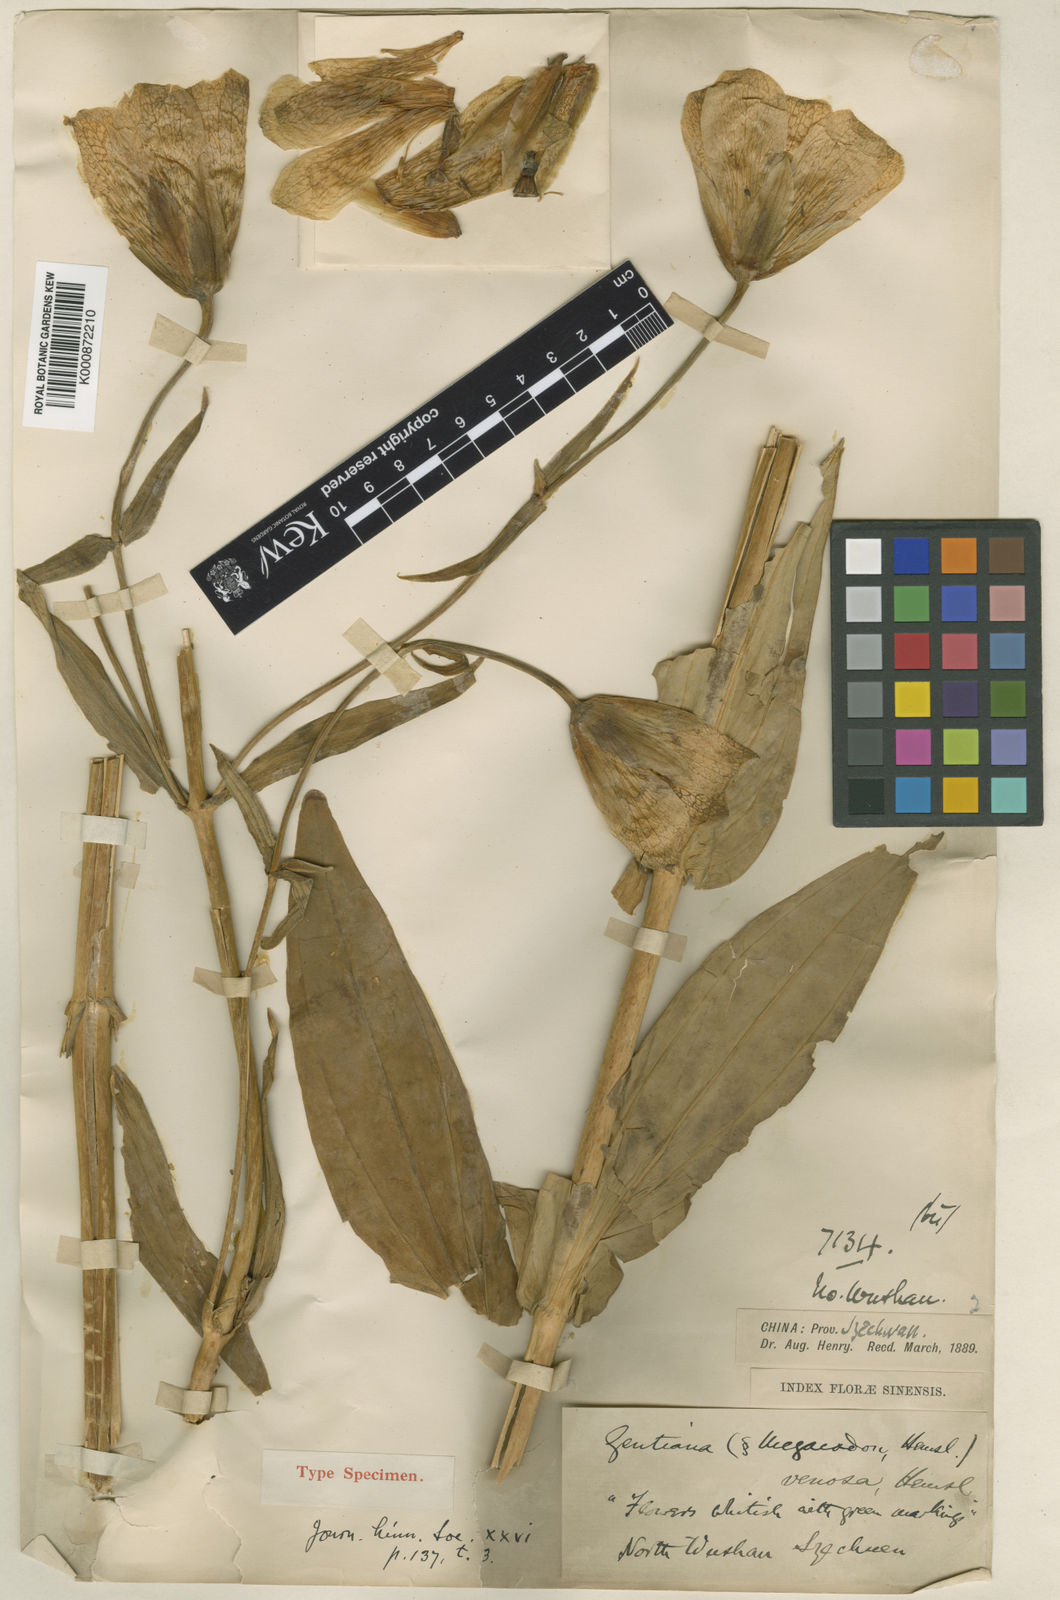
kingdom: Plantae
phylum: Tracheophyta
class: Magnoliopsida
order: Gentianales
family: Gentianaceae
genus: Megacodon
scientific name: Megacodon venosus
